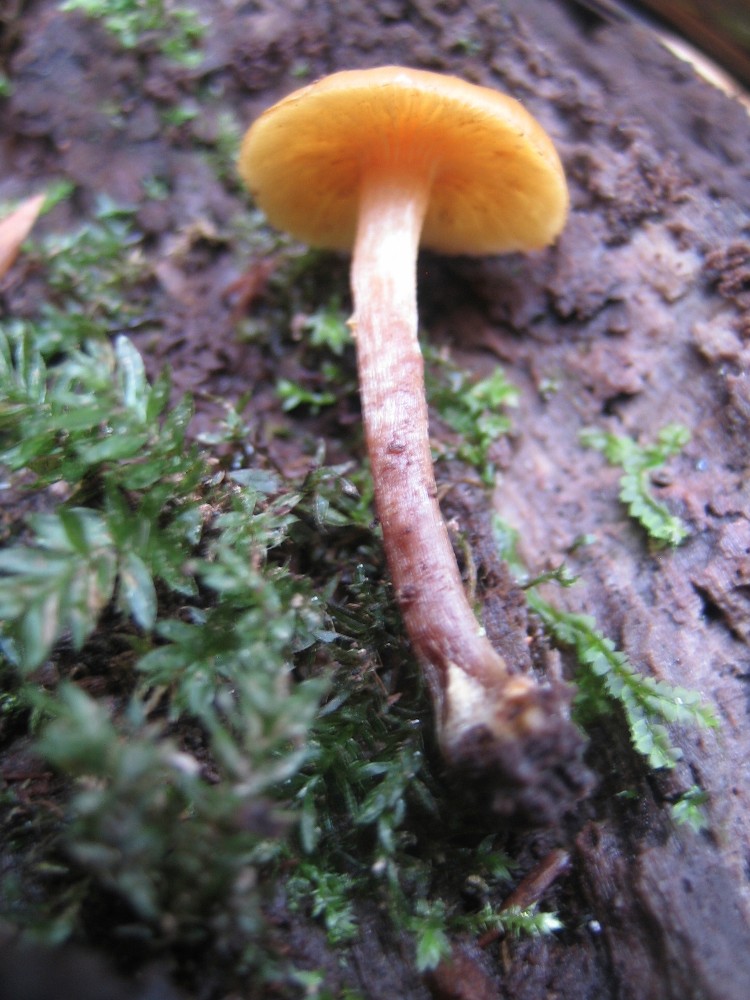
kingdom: Fungi
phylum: Basidiomycota
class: Agaricomycetes
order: Agaricales
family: Hymenogastraceae
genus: Galerina
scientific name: Galerina marginata
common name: randbæltet hjelmhat
